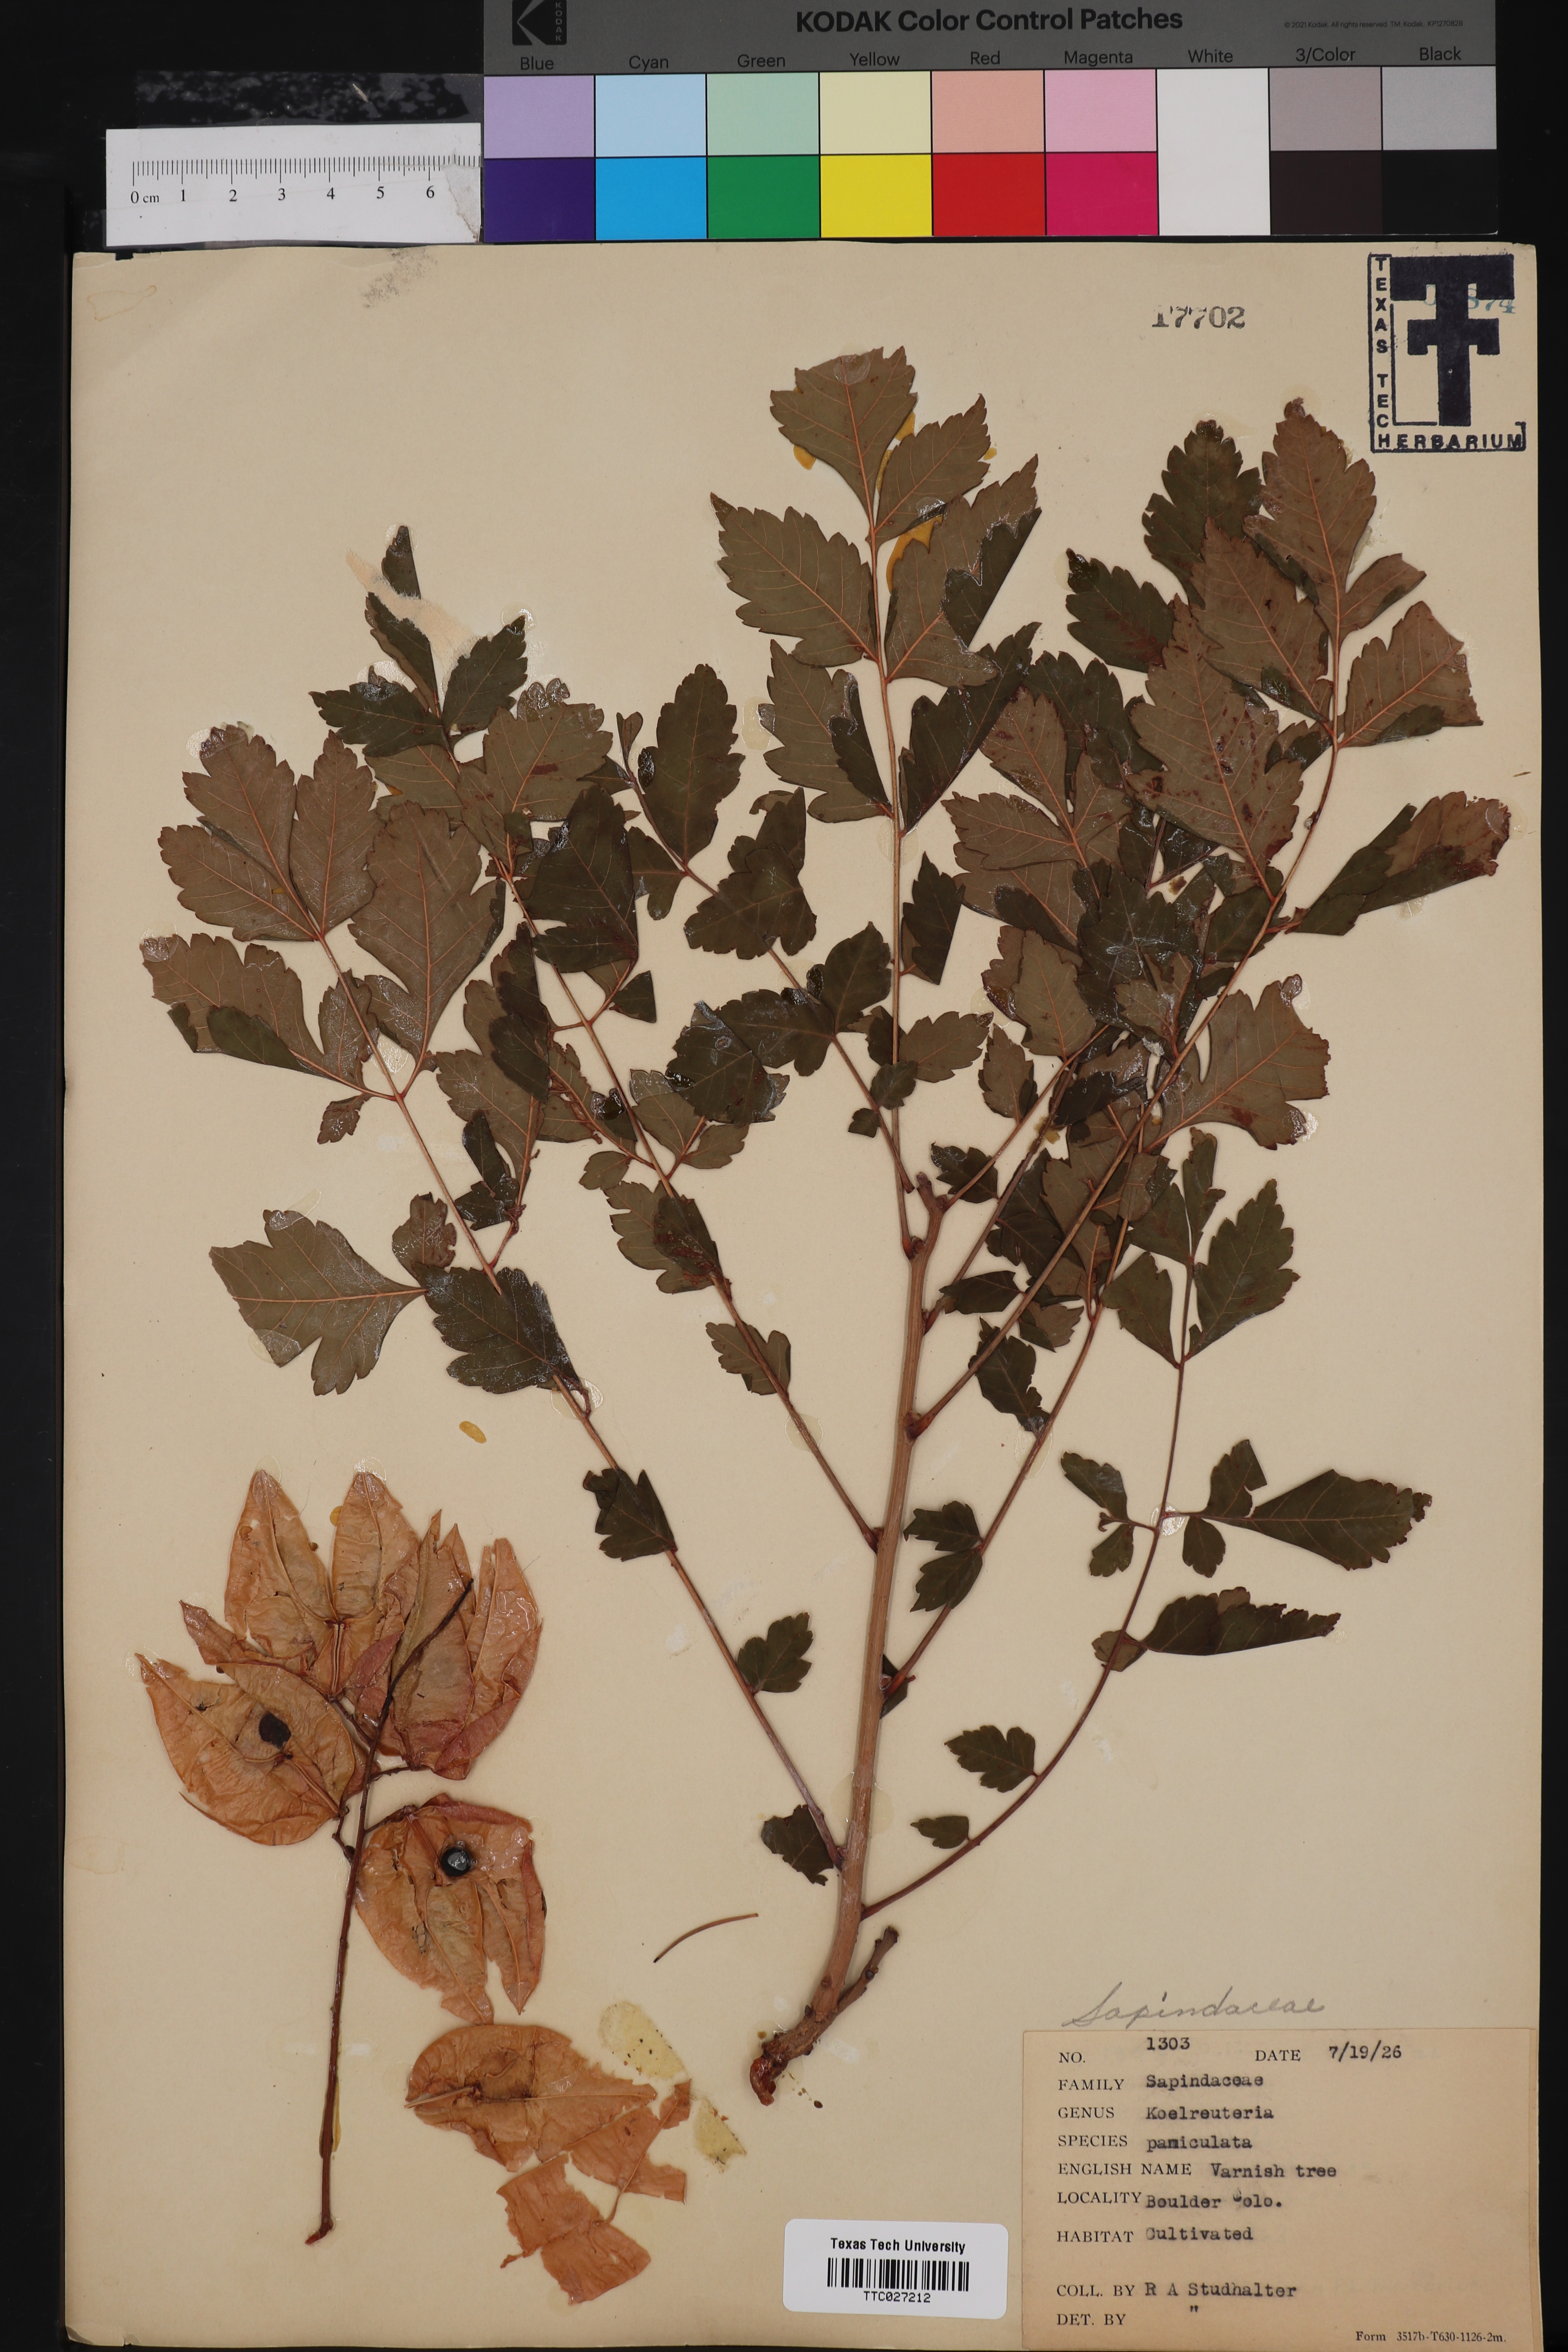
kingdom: Plantae
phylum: Tracheophyta
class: Magnoliopsida
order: Sapindales
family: Sapindaceae
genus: Koelreuteria
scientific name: Koelreuteria paniculata
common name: Pride-of-india
